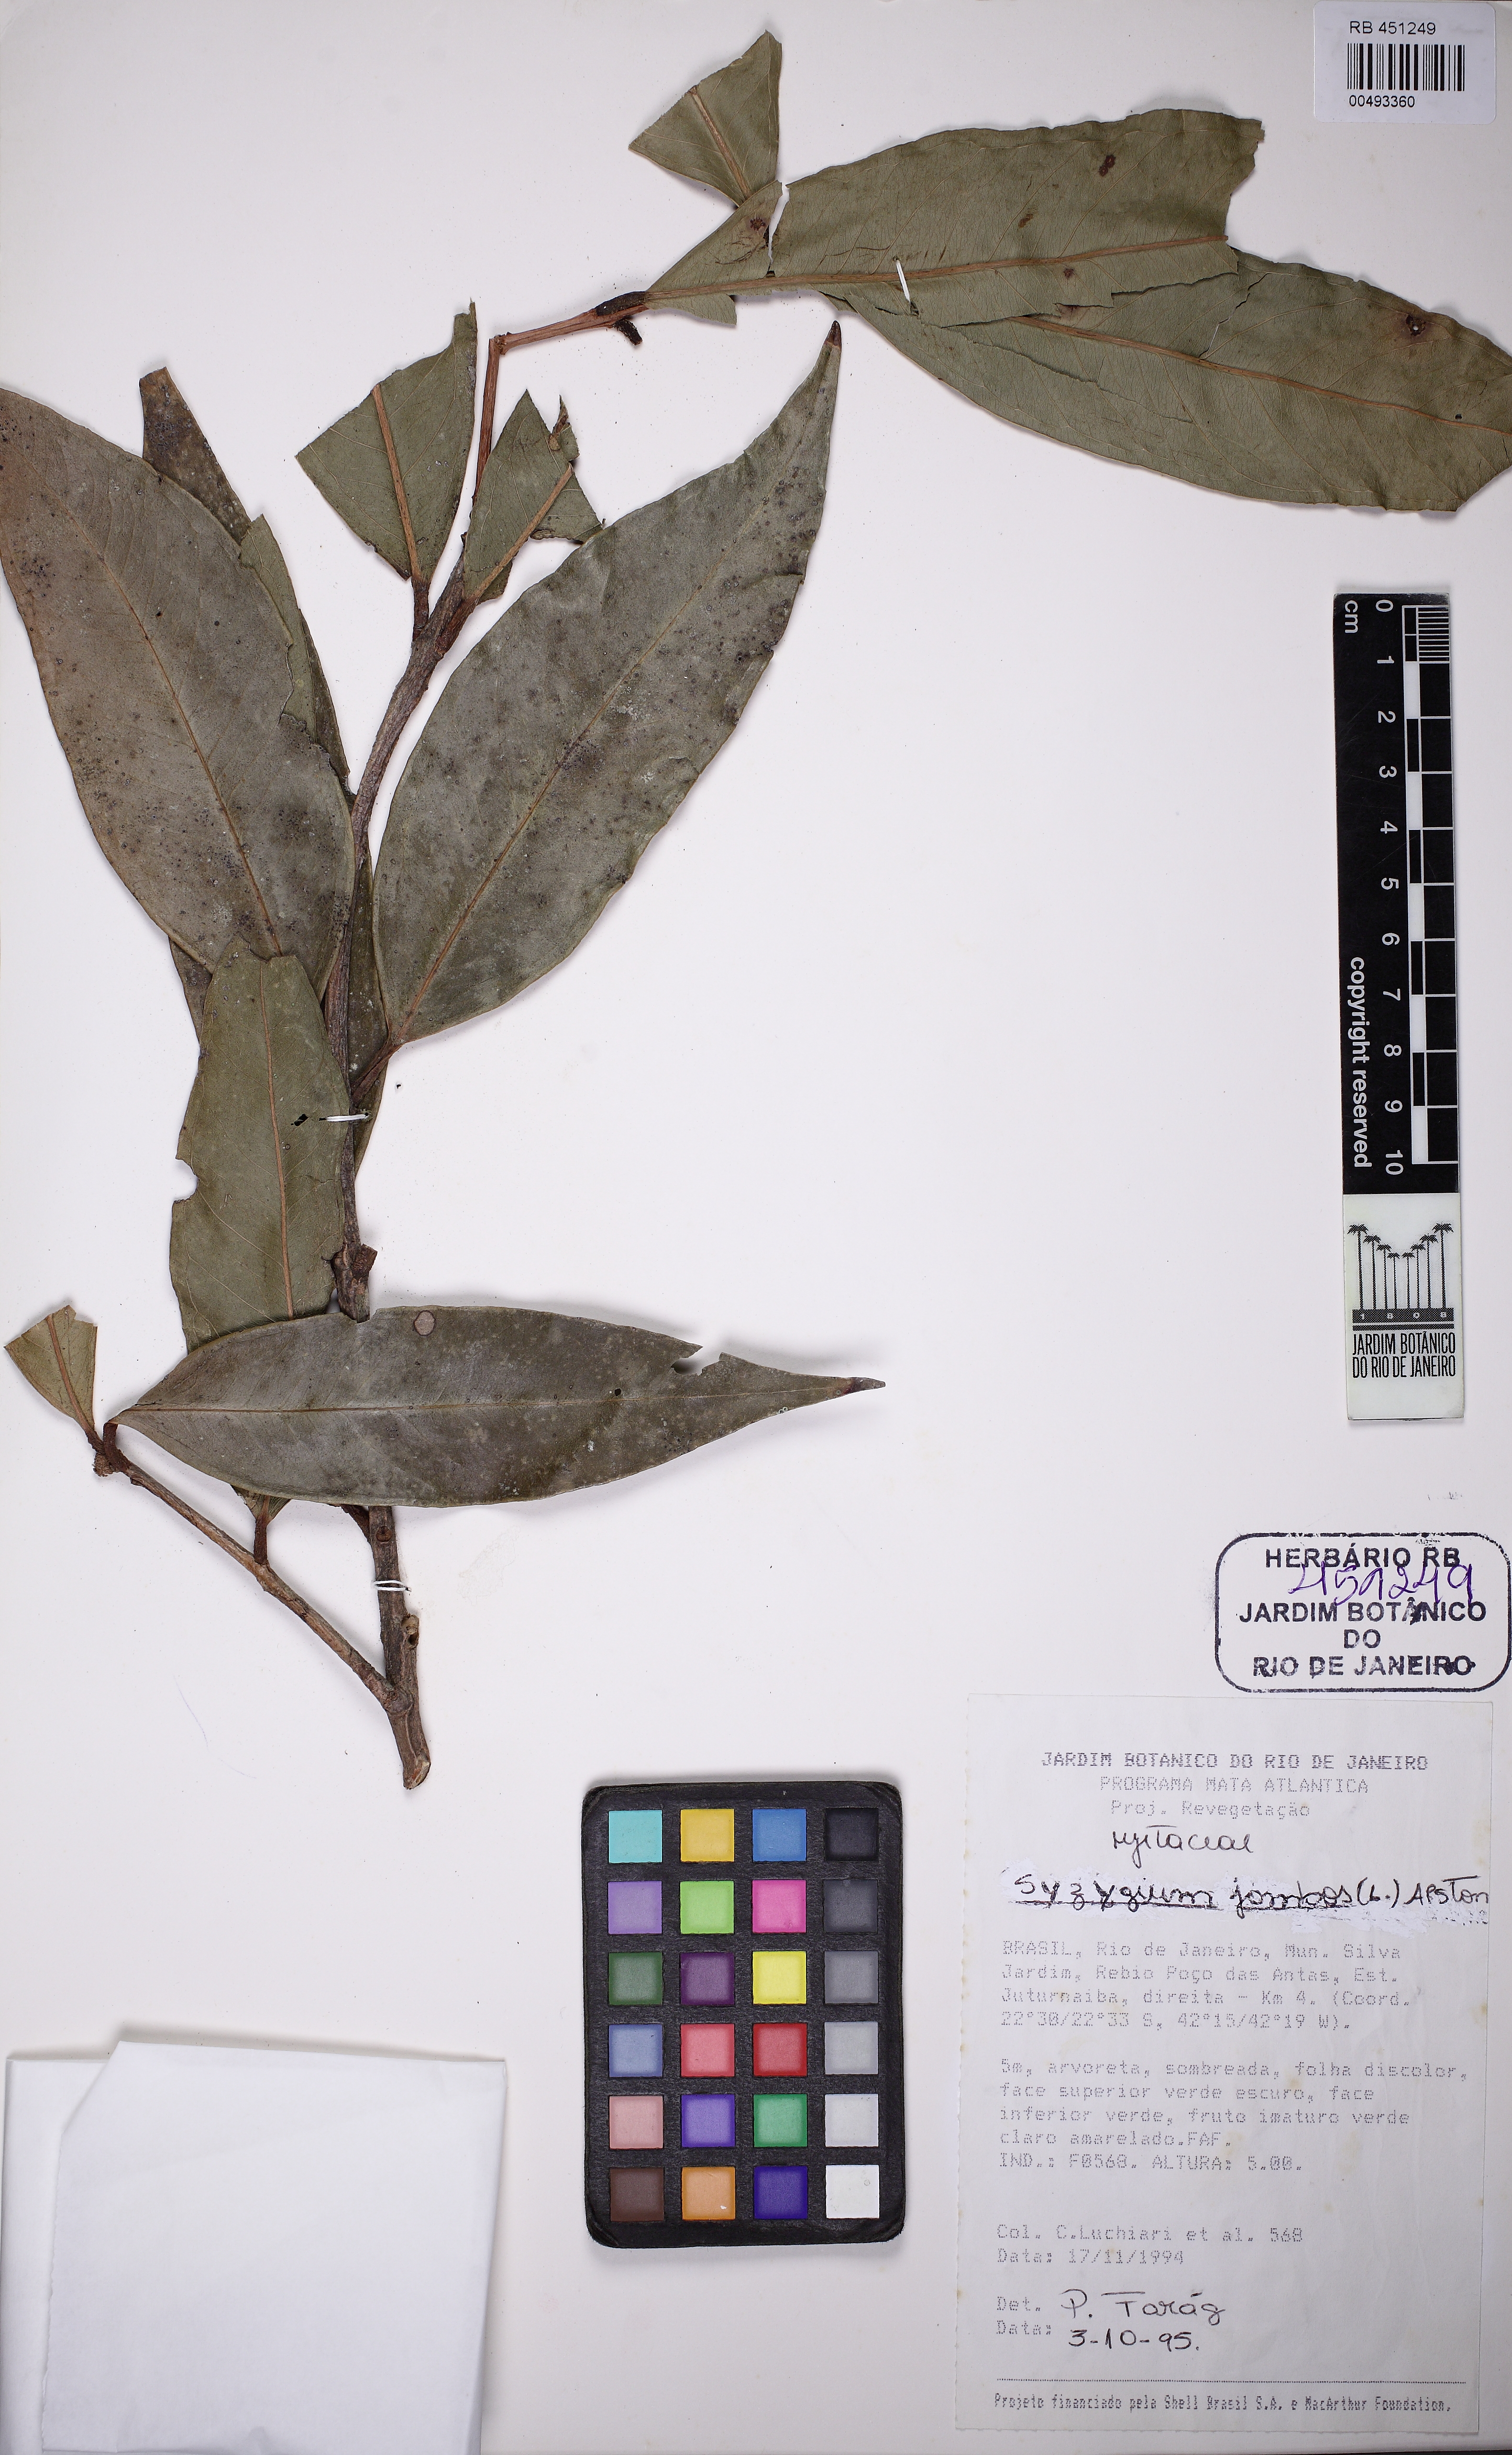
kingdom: Plantae
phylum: Tracheophyta
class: Magnoliopsida
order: Myrtales
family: Myrtaceae
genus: Syzygium
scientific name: Syzygium jambos
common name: Malabar plum
